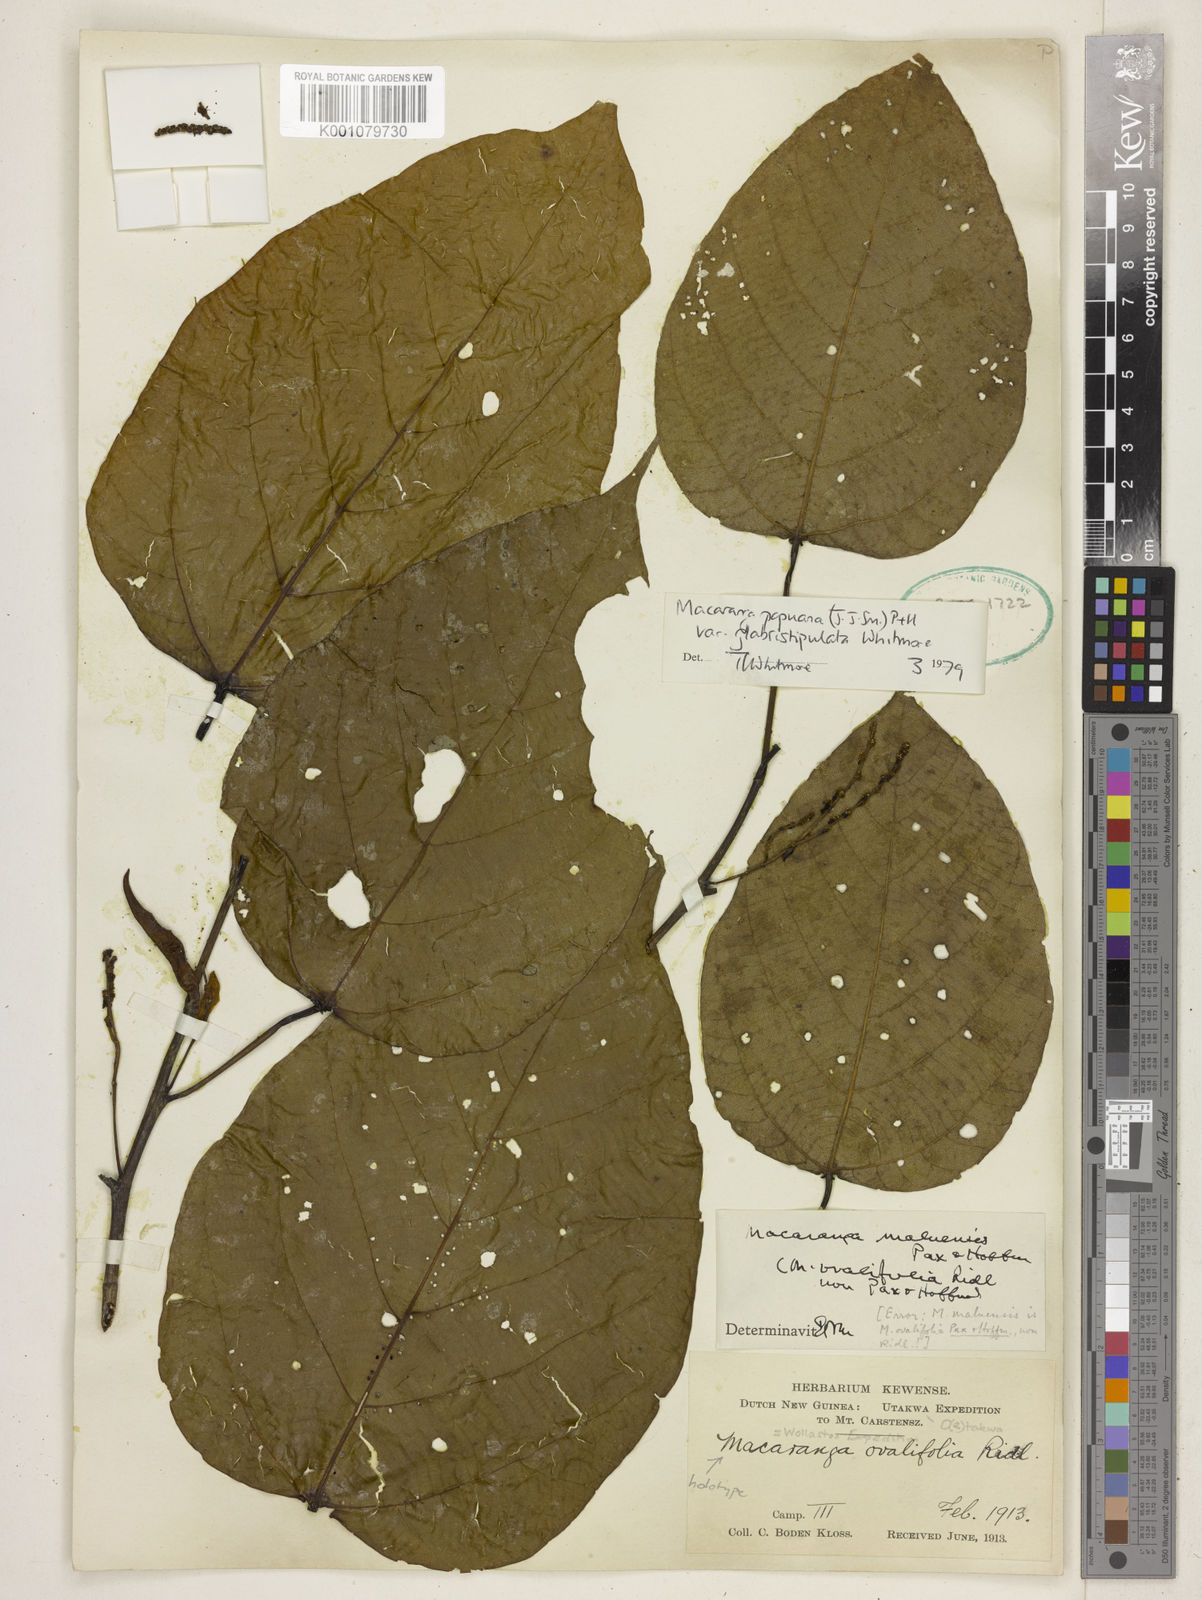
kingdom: Plantae
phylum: Tracheophyta
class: Magnoliopsida
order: Malpighiales
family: Euphorbiaceae
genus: Macaranga
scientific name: Macaranga papuana
